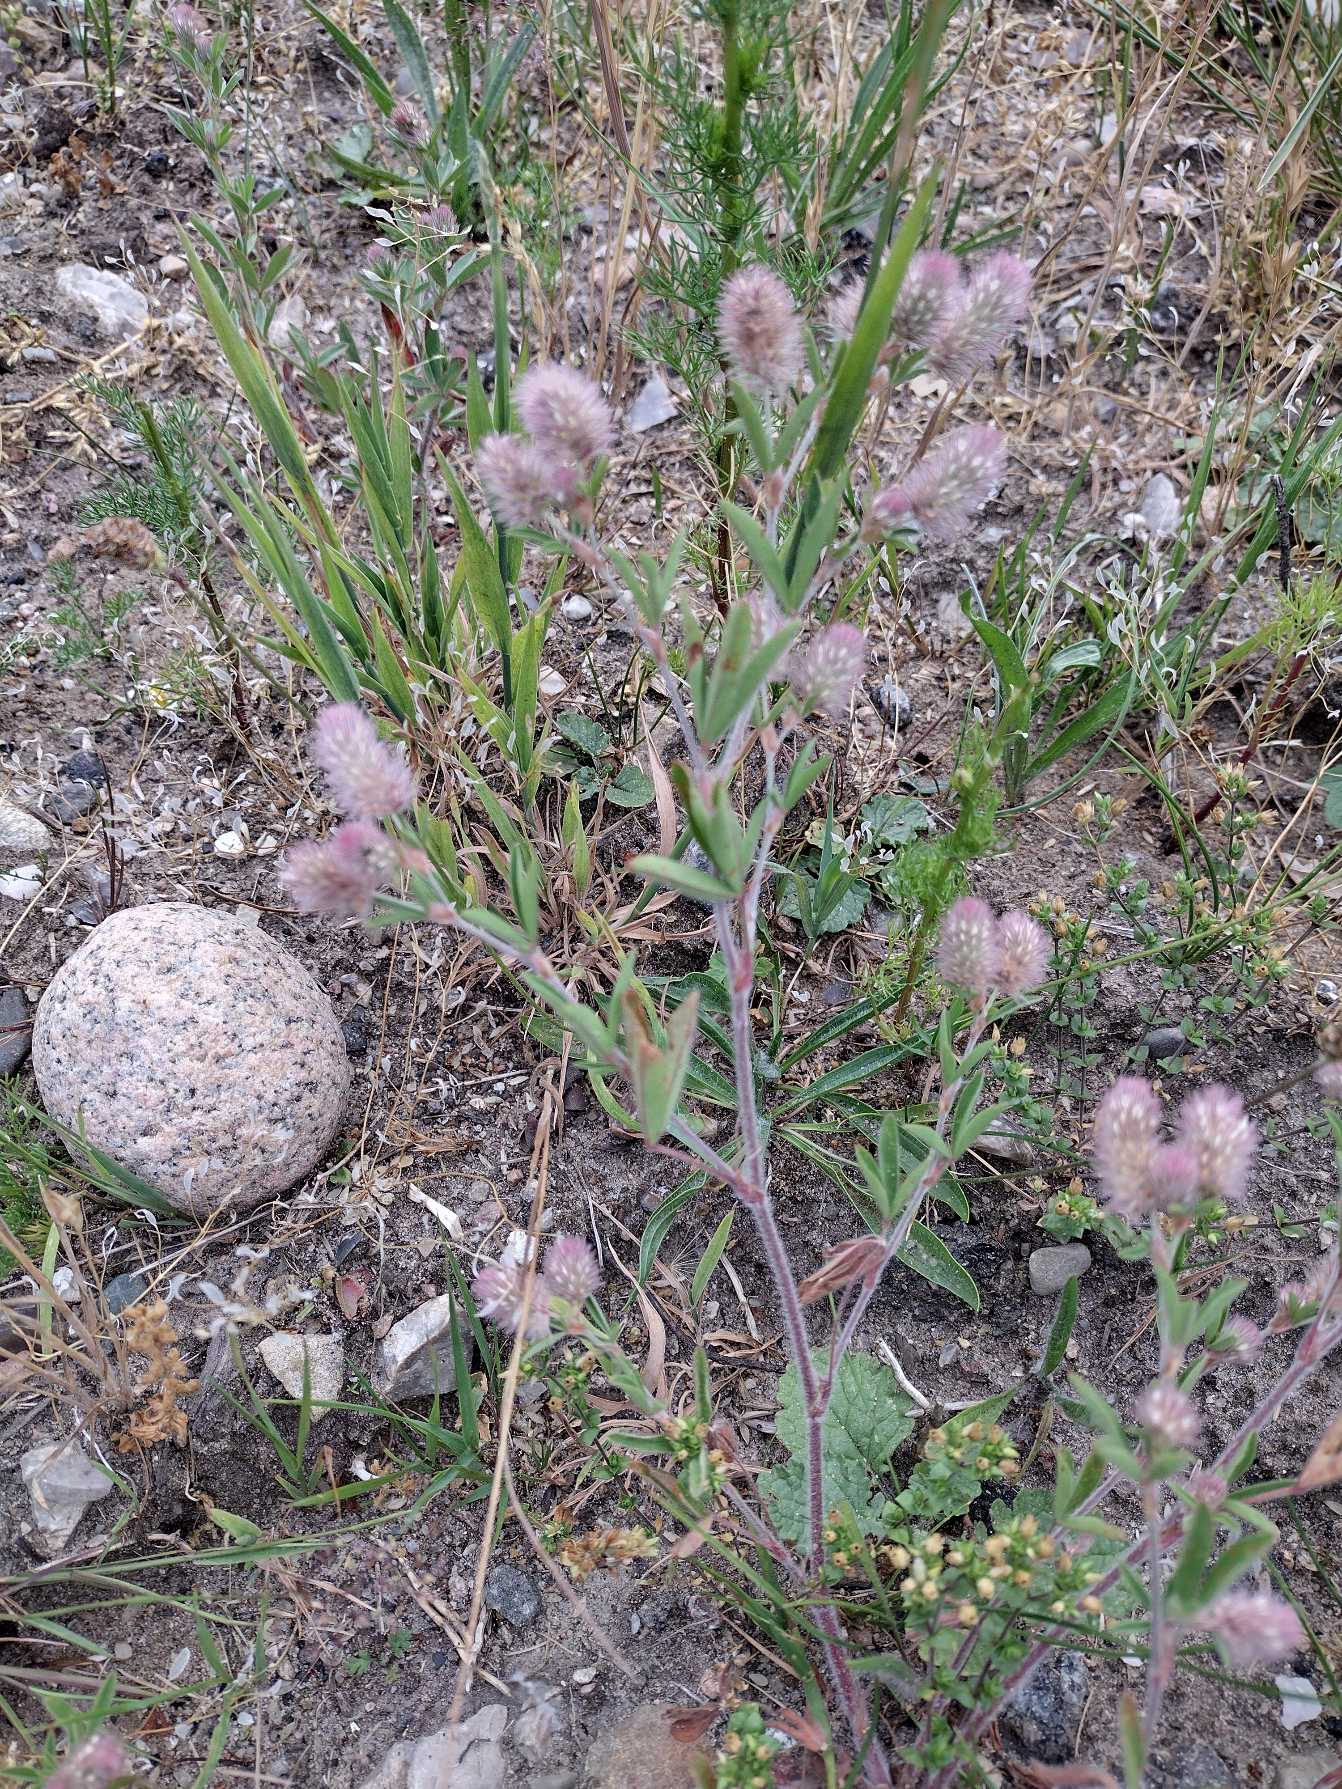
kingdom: Plantae
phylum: Tracheophyta
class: Magnoliopsida
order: Fabales
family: Fabaceae
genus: Trifolium
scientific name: Trifolium arvense
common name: Hare-kløver
